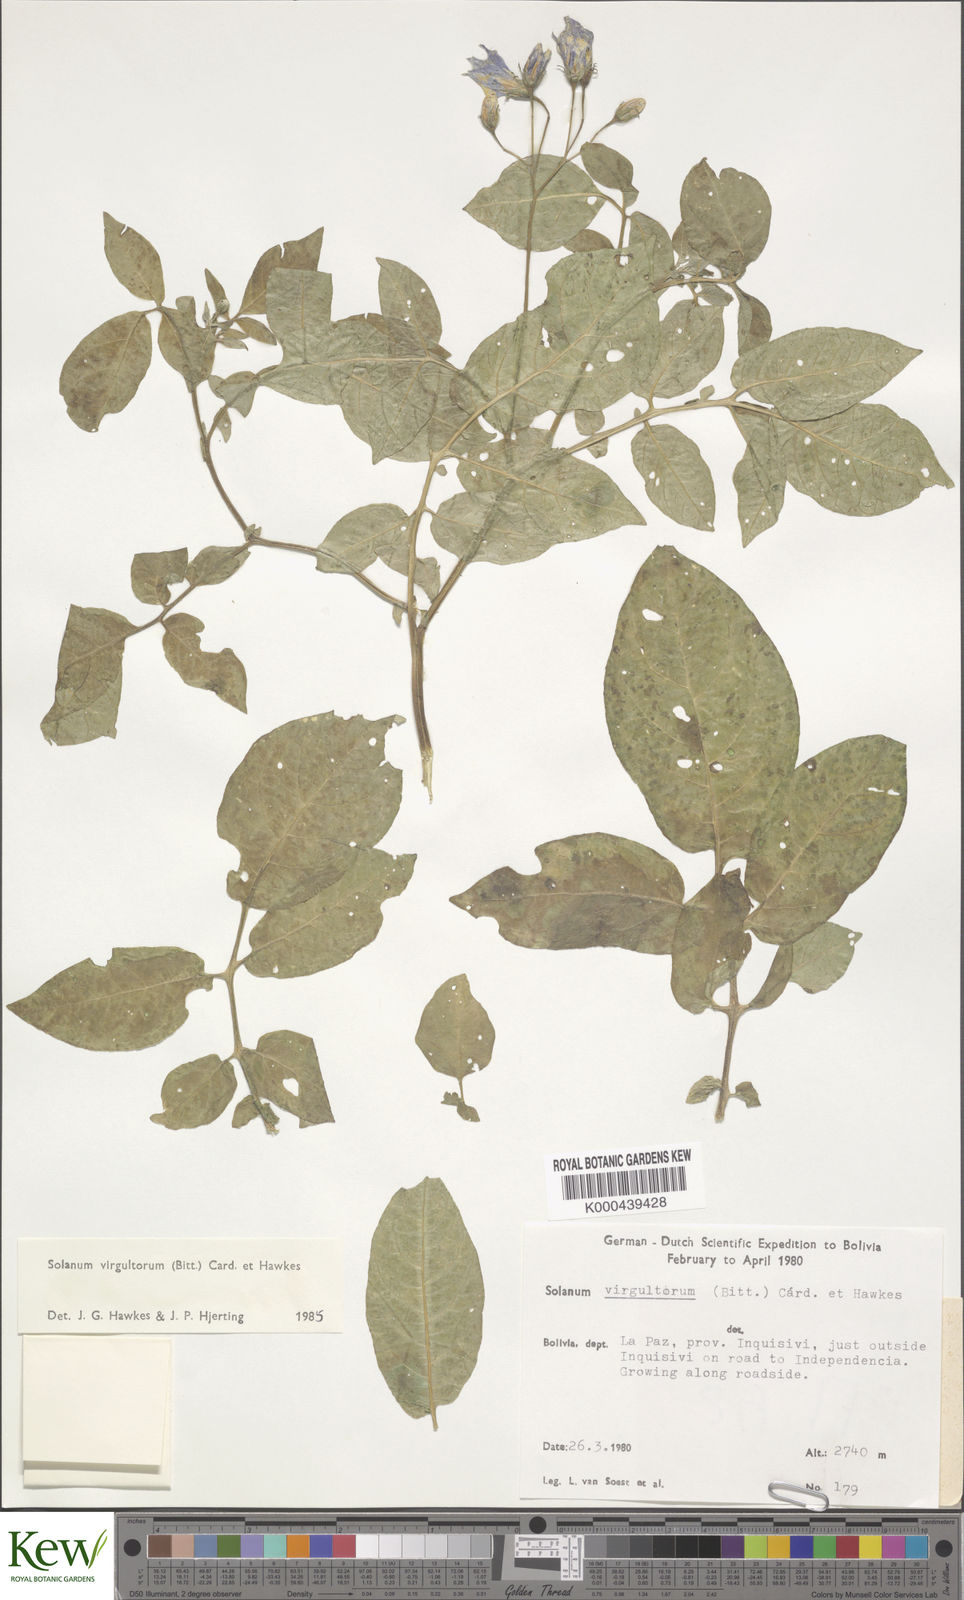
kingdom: Plantae
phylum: Tracheophyta
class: Magnoliopsida
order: Solanales
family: Solanaceae
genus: Solanum
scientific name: Solanum brevicaule
